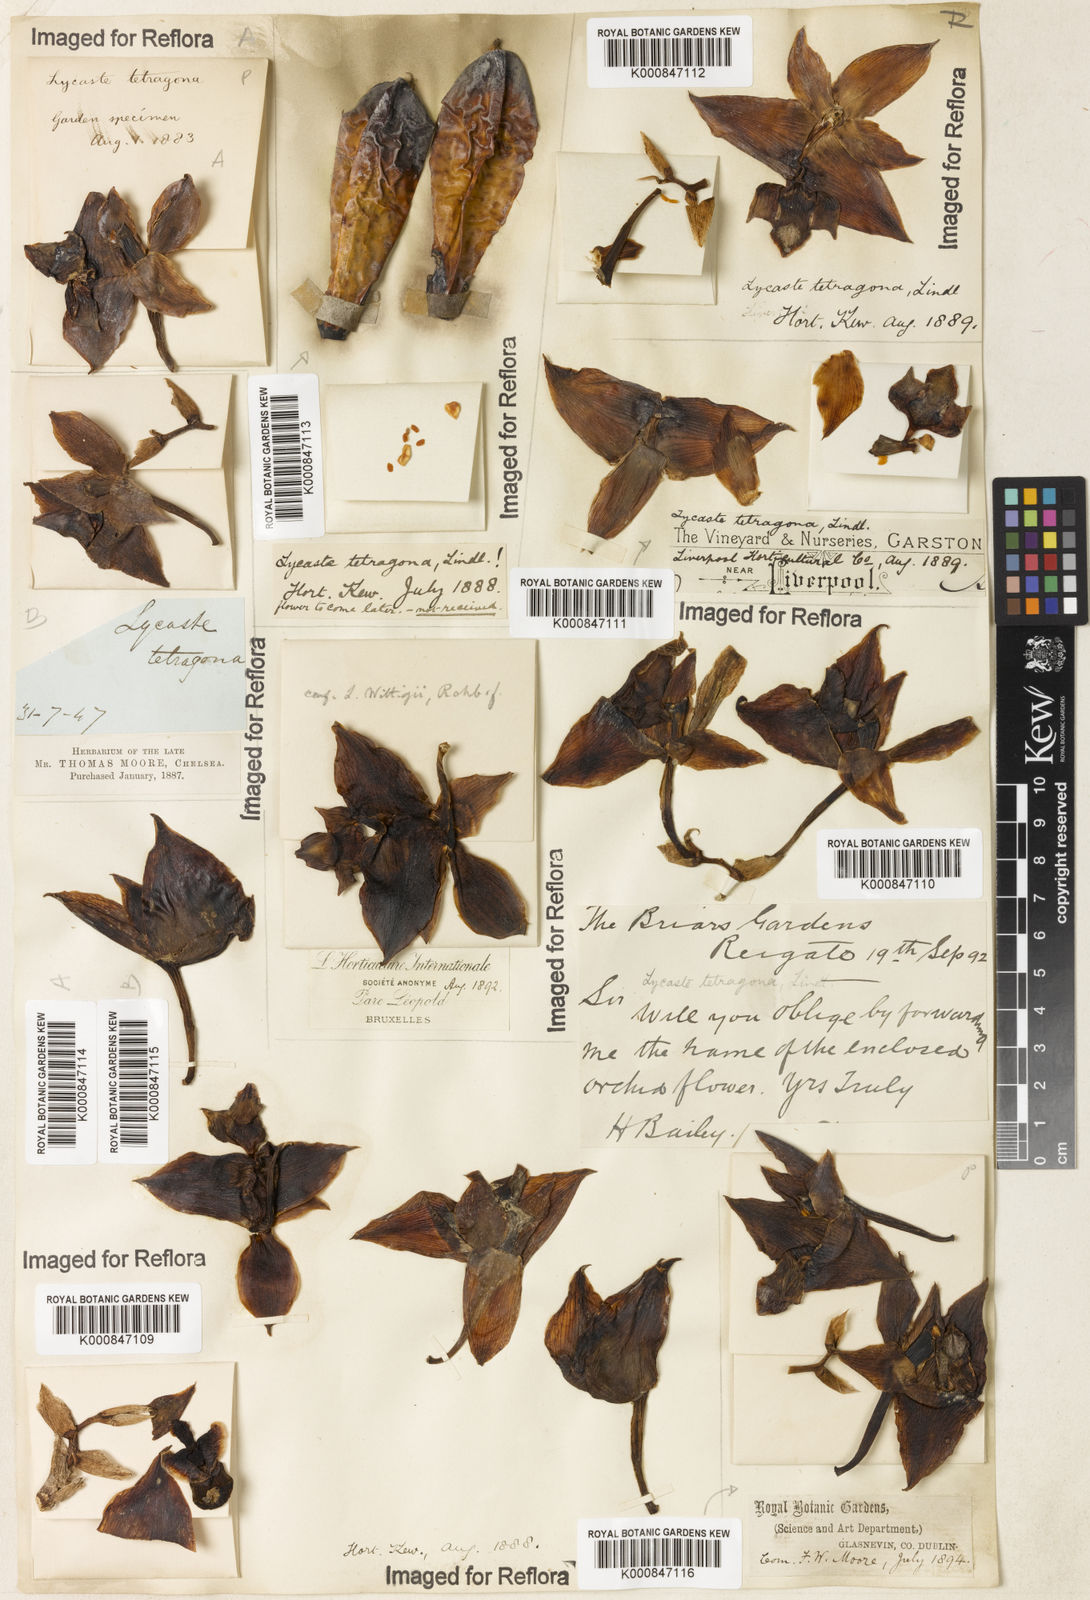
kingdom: Plantae
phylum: Tracheophyta
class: Liliopsida
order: Asparagales
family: Orchidaceae
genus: Bifrenaria
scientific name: Bifrenaria tetragona
